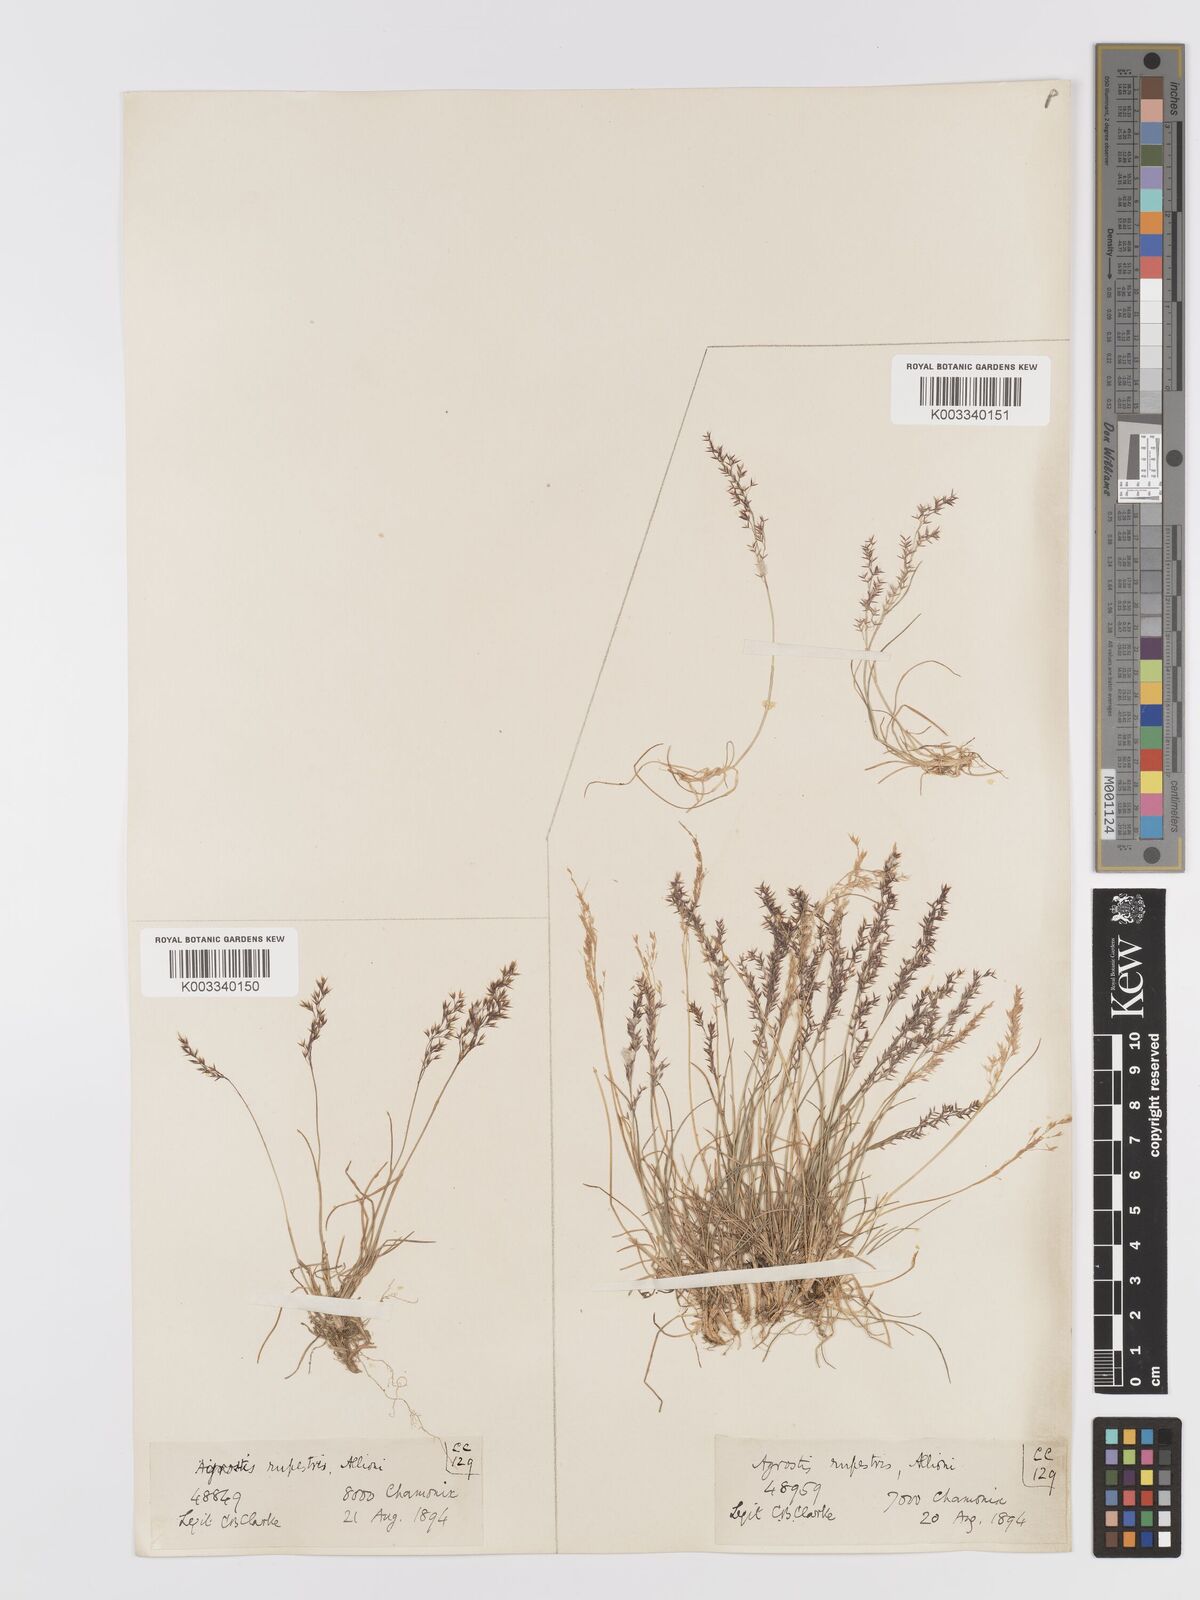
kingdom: Plantae
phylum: Tracheophyta
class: Liliopsida
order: Poales
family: Poaceae
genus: Agrostis
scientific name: Agrostis rupestris
